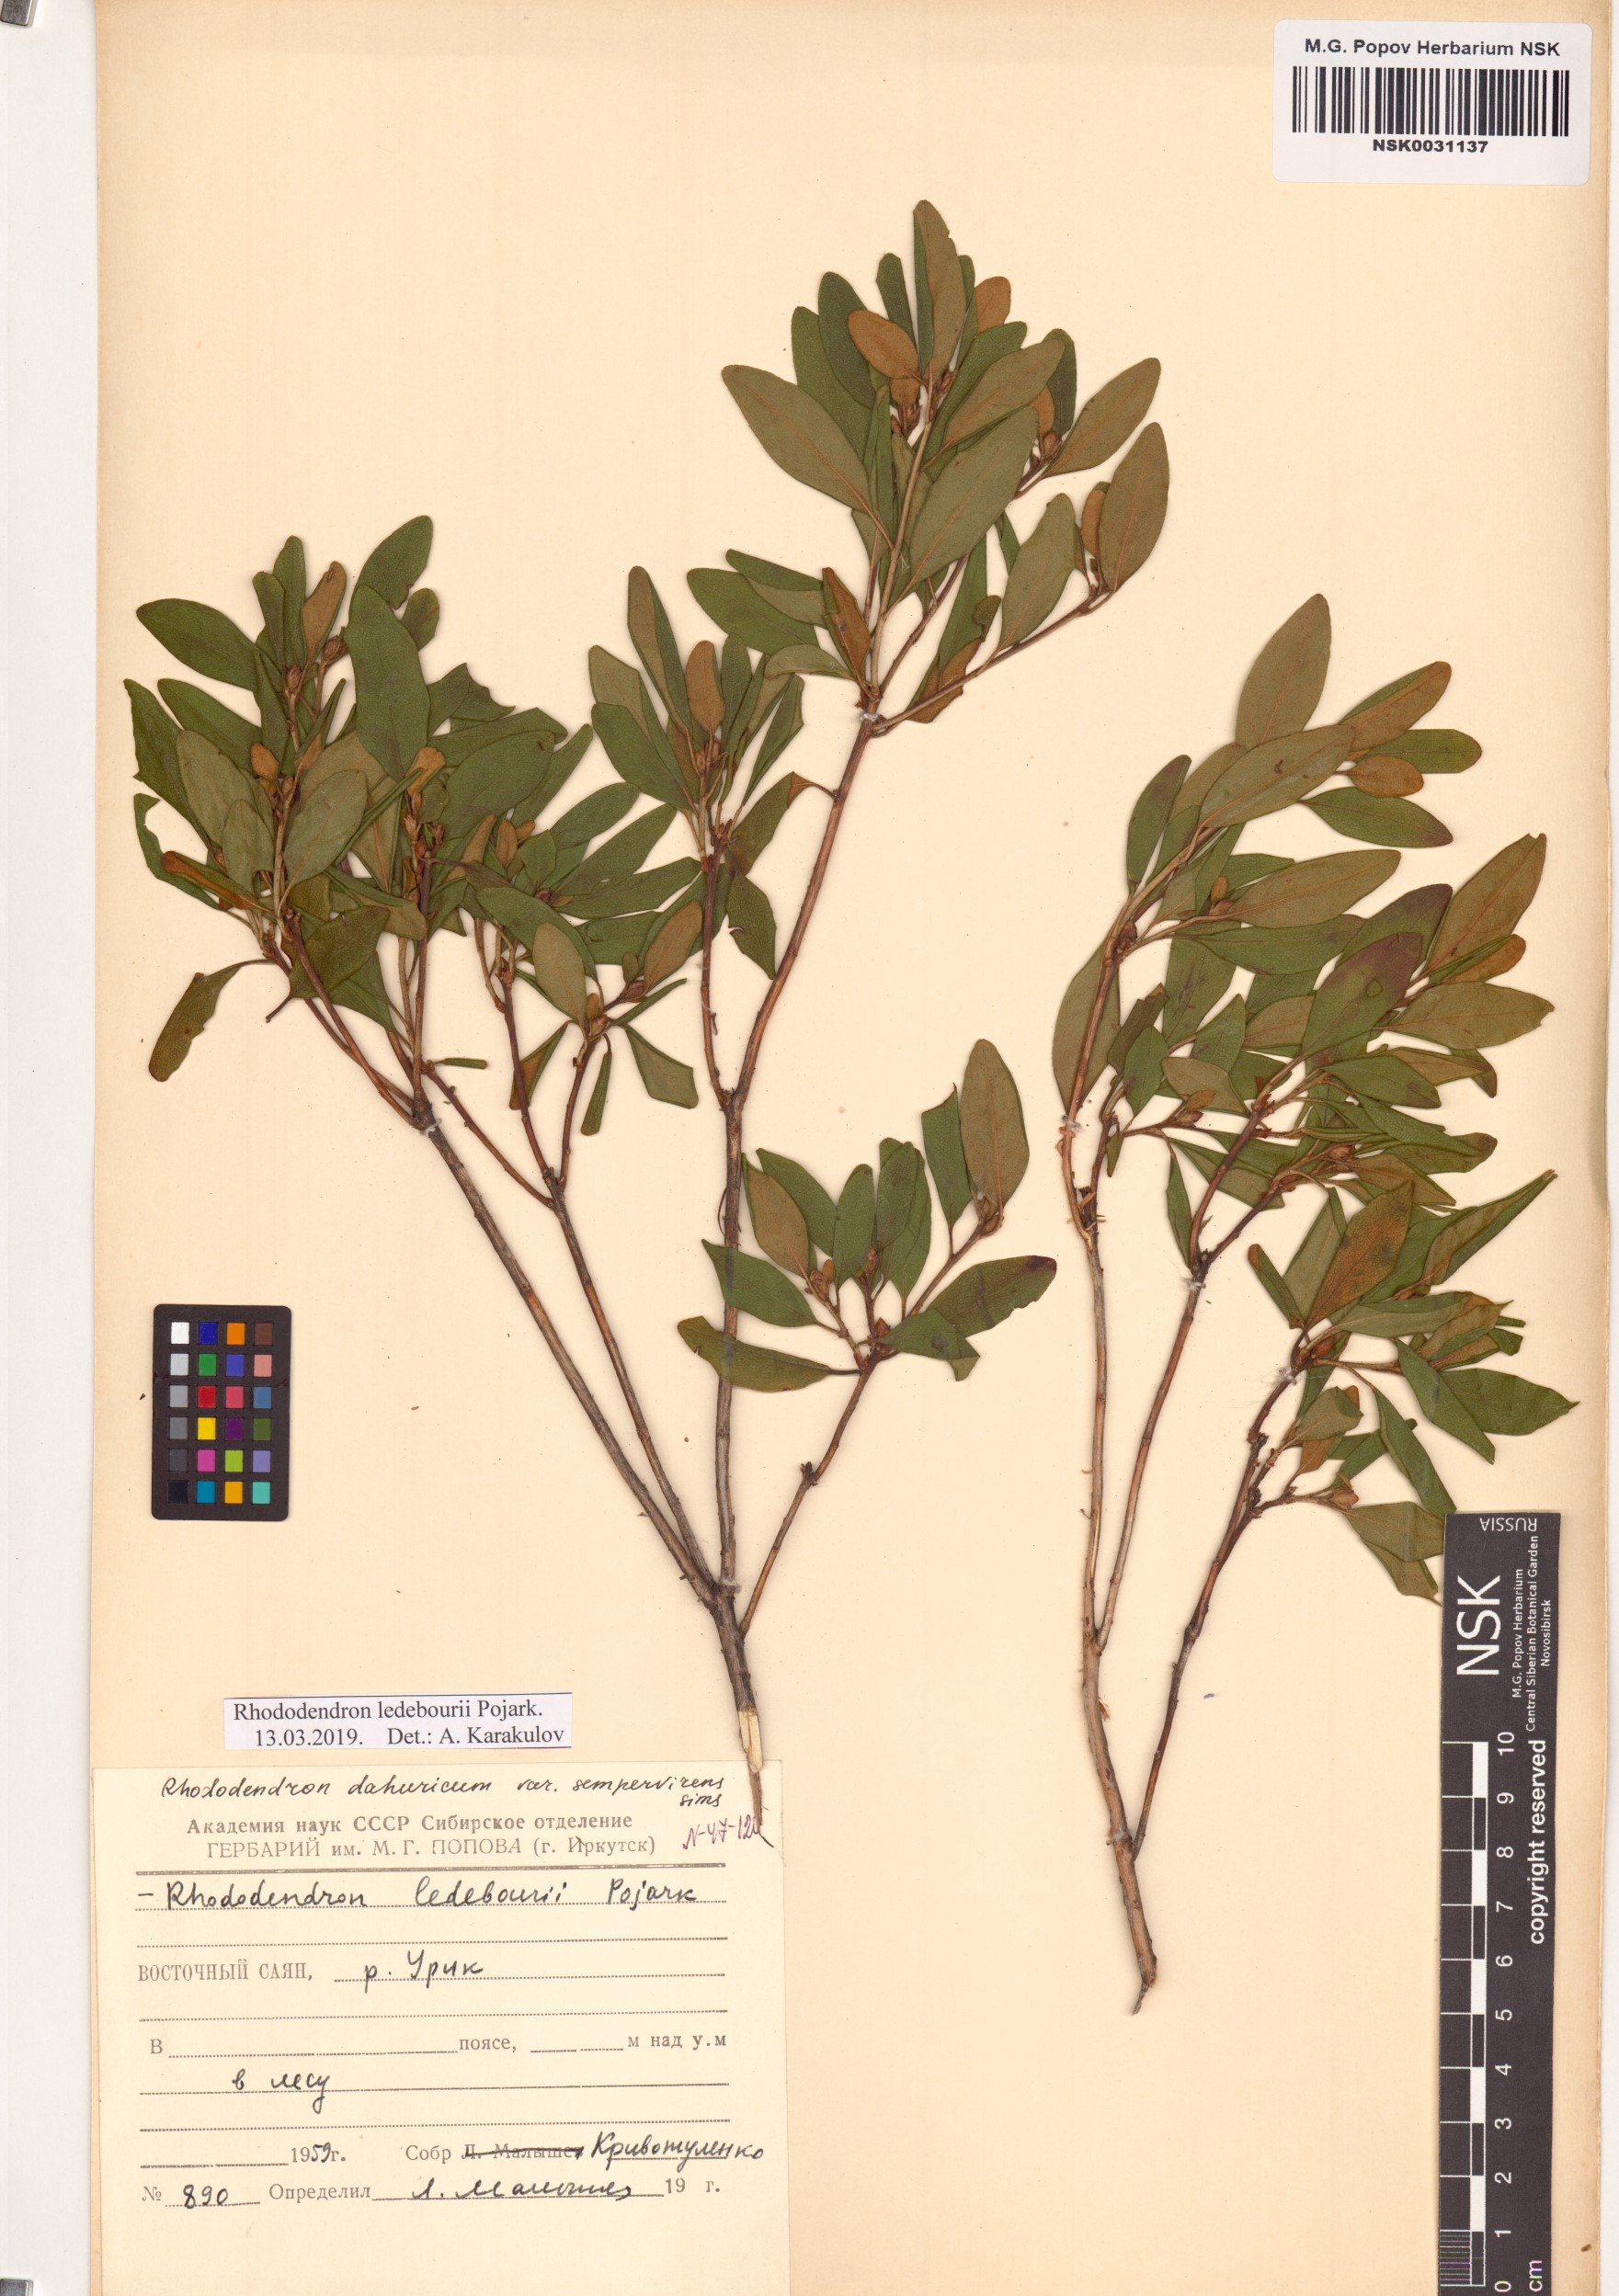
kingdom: Plantae
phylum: Tracheophyta
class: Magnoliopsida
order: Ericales
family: Ericaceae
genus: Rhododendron
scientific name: Rhododendron dauricum
